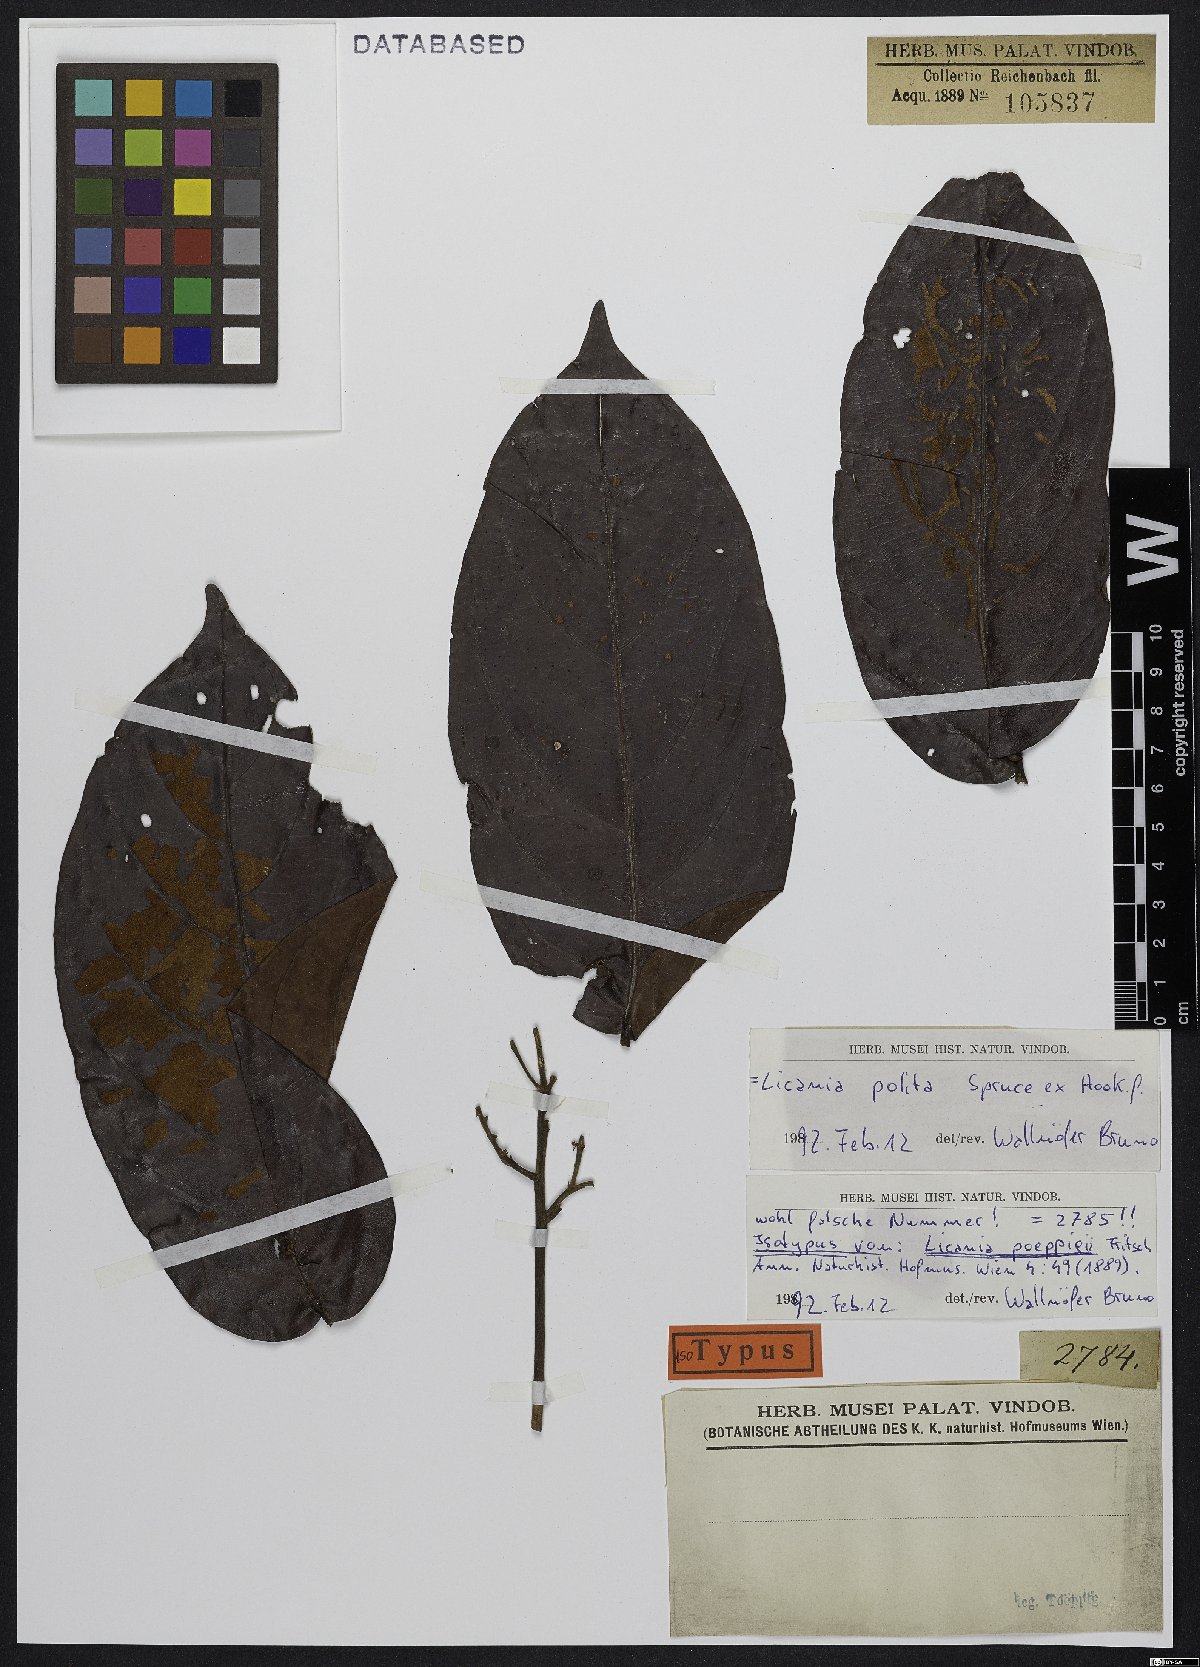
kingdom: Plantae
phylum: Tracheophyta
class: Magnoliopsida
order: Malpighiales
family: Chrysobalanaceae
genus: Licania
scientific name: Licania polita
